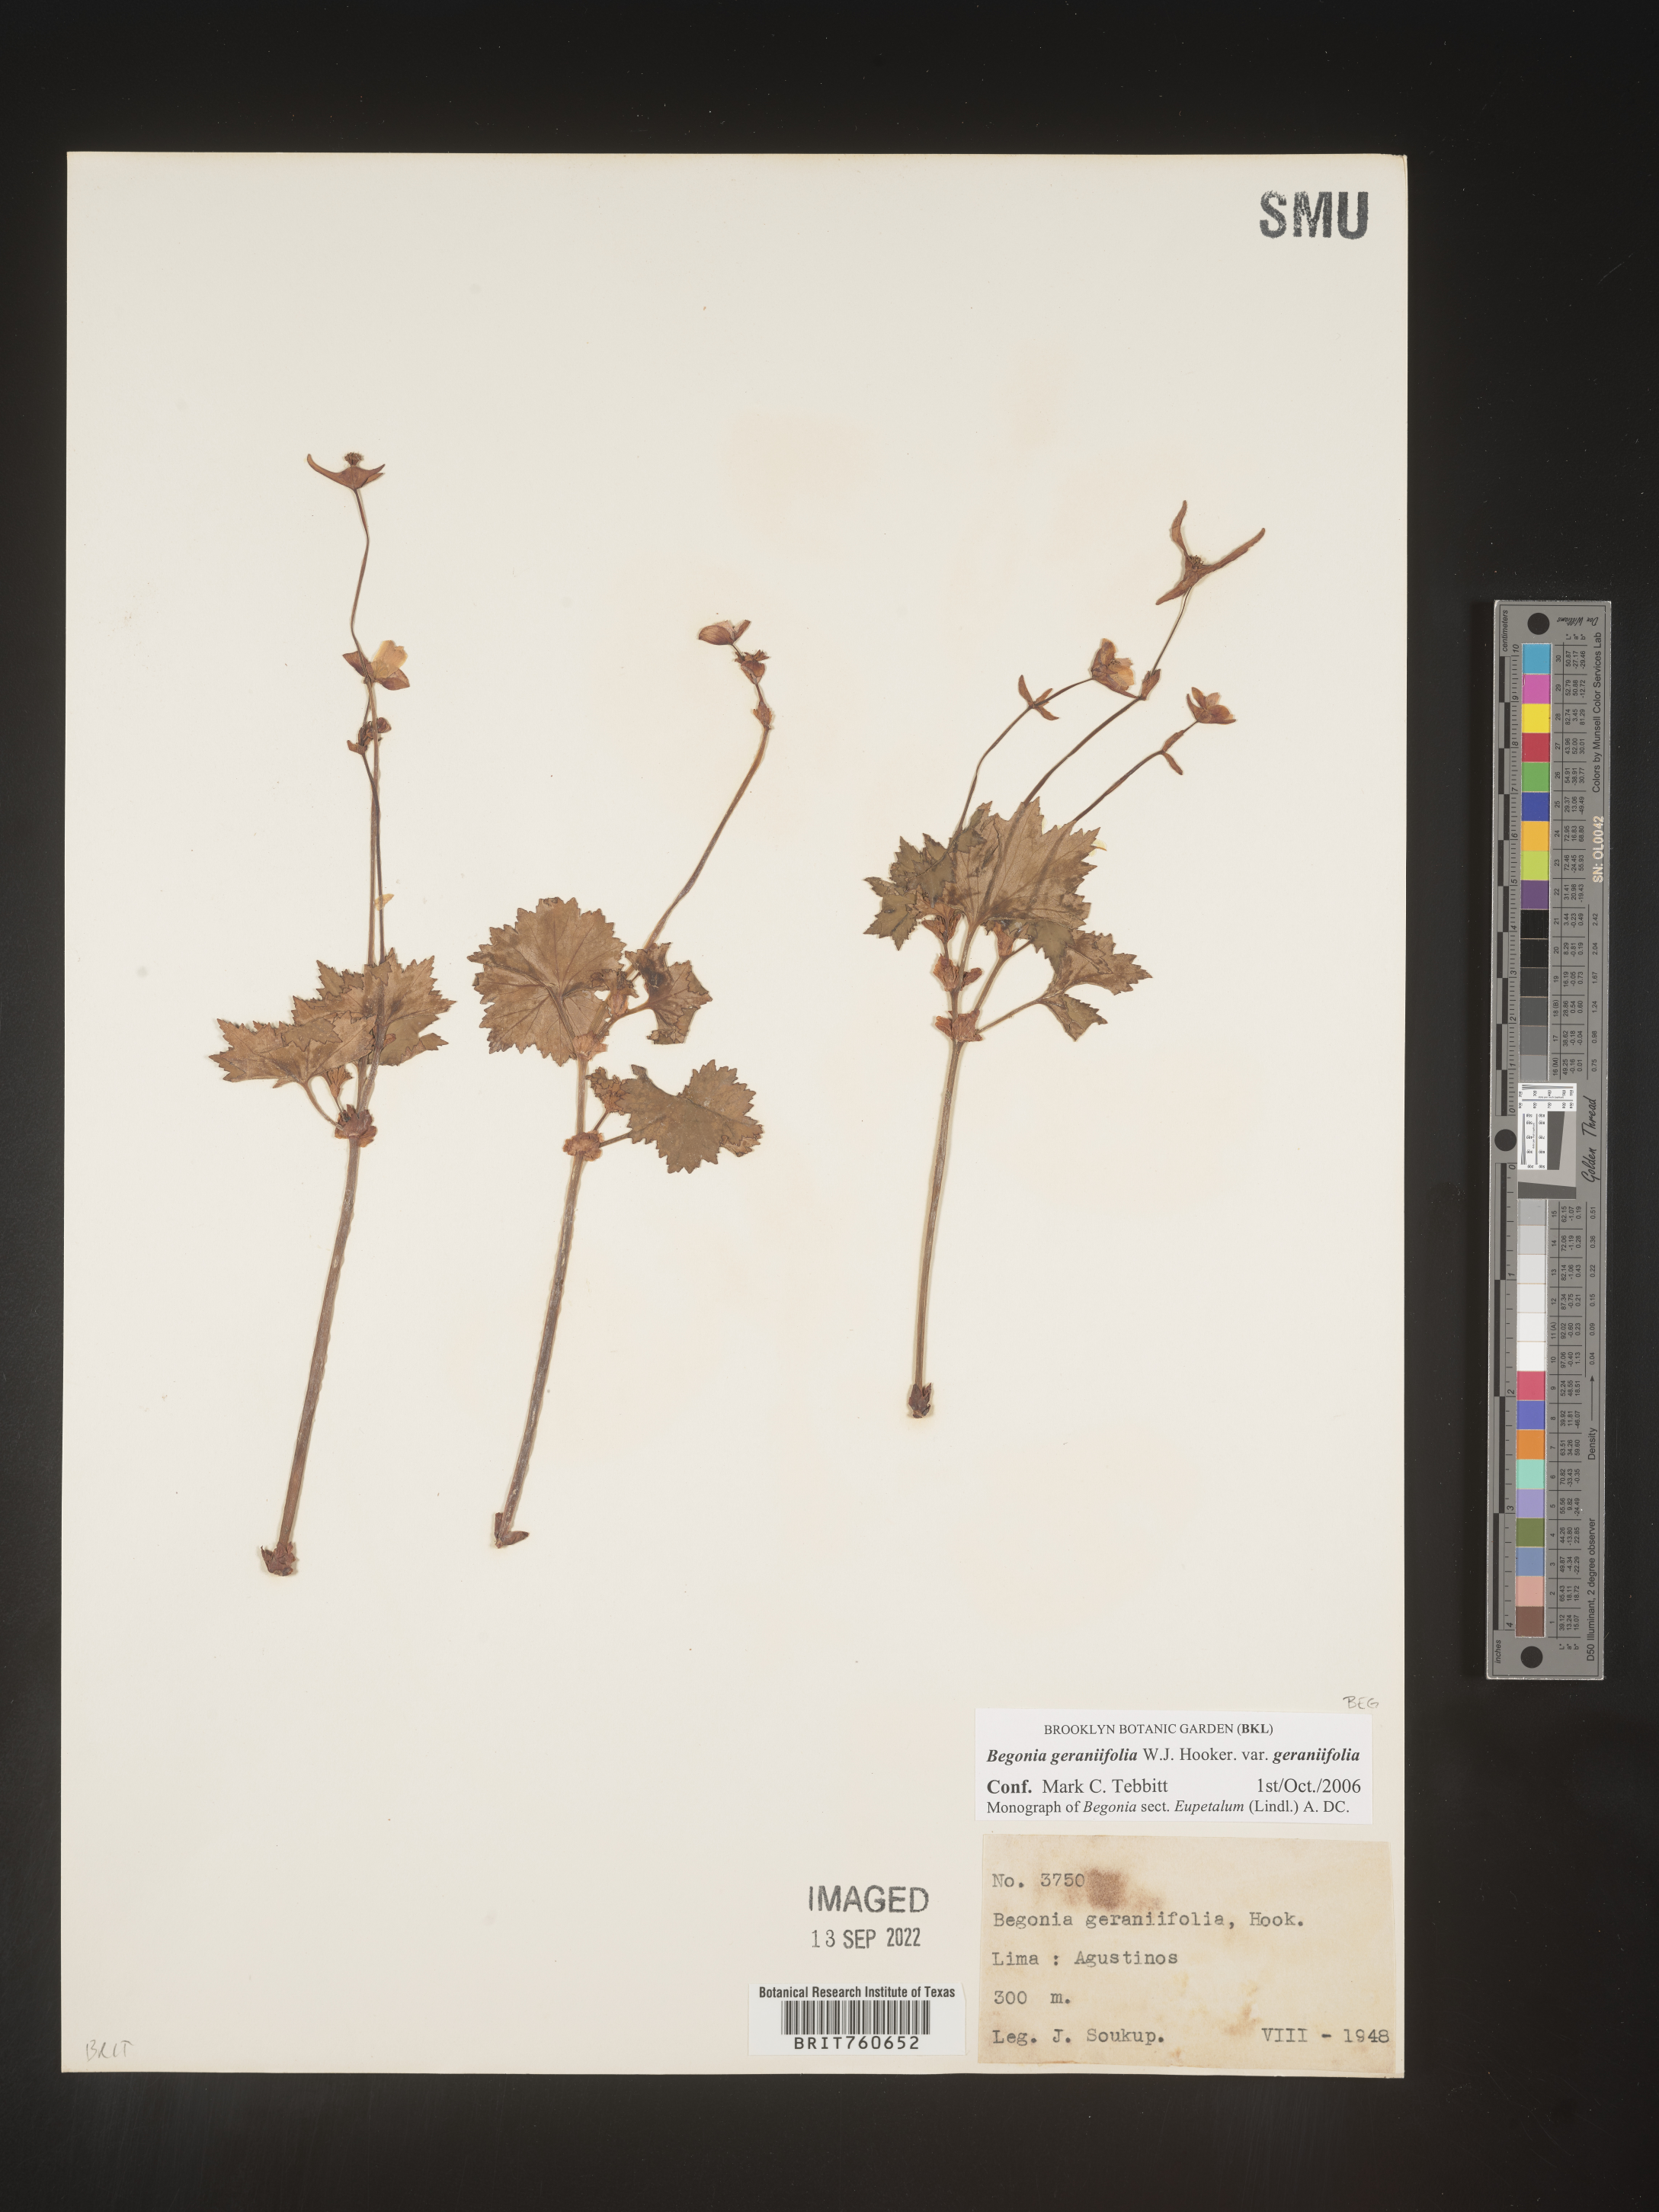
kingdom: Plantae
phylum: Tracheophyta
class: Magnoliopsida
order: Cucurbitales
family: Begoniaceae
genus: Begonia
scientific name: Begonia
